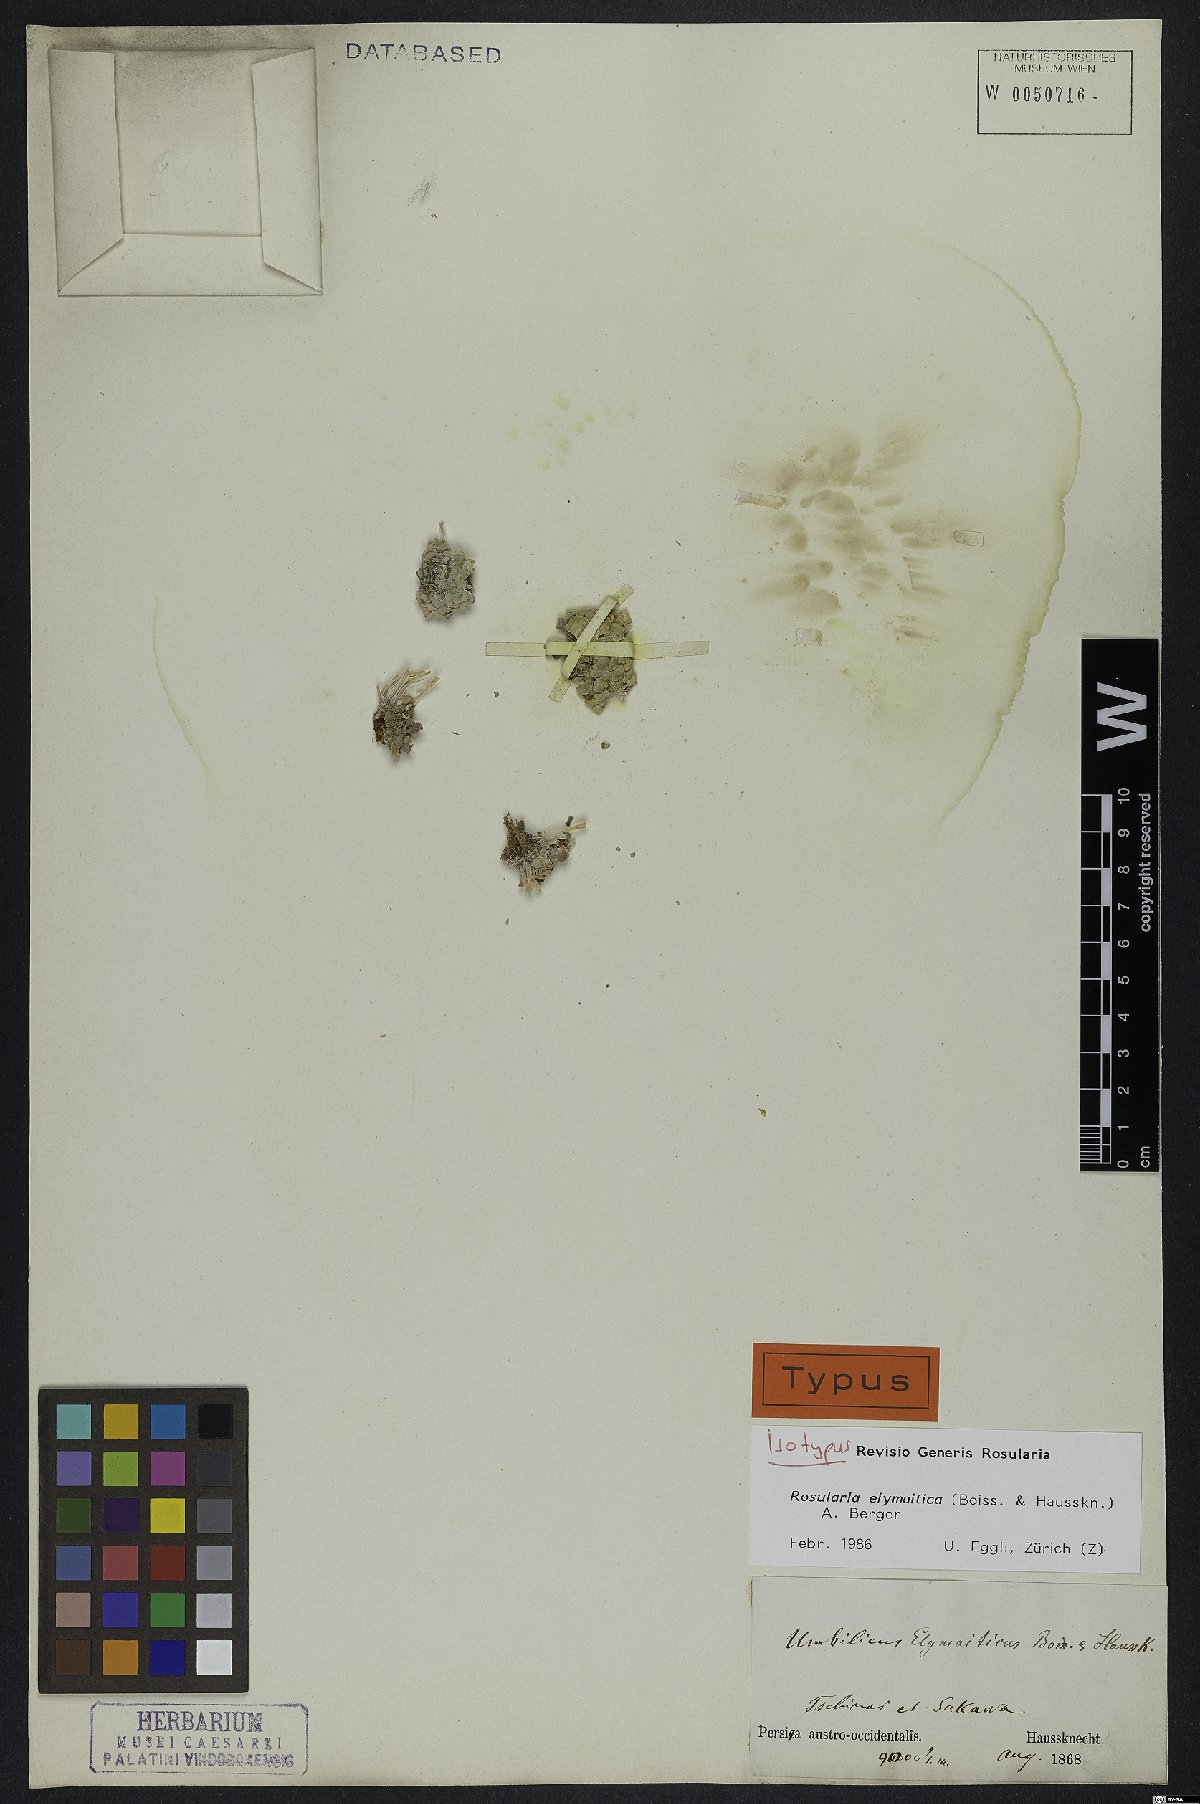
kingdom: Plantae
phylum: Tracheophyta
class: Magnoliopsida
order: Saxifragales
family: Crassulaceae
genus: Rosularia
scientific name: Rosularia elymaitica
